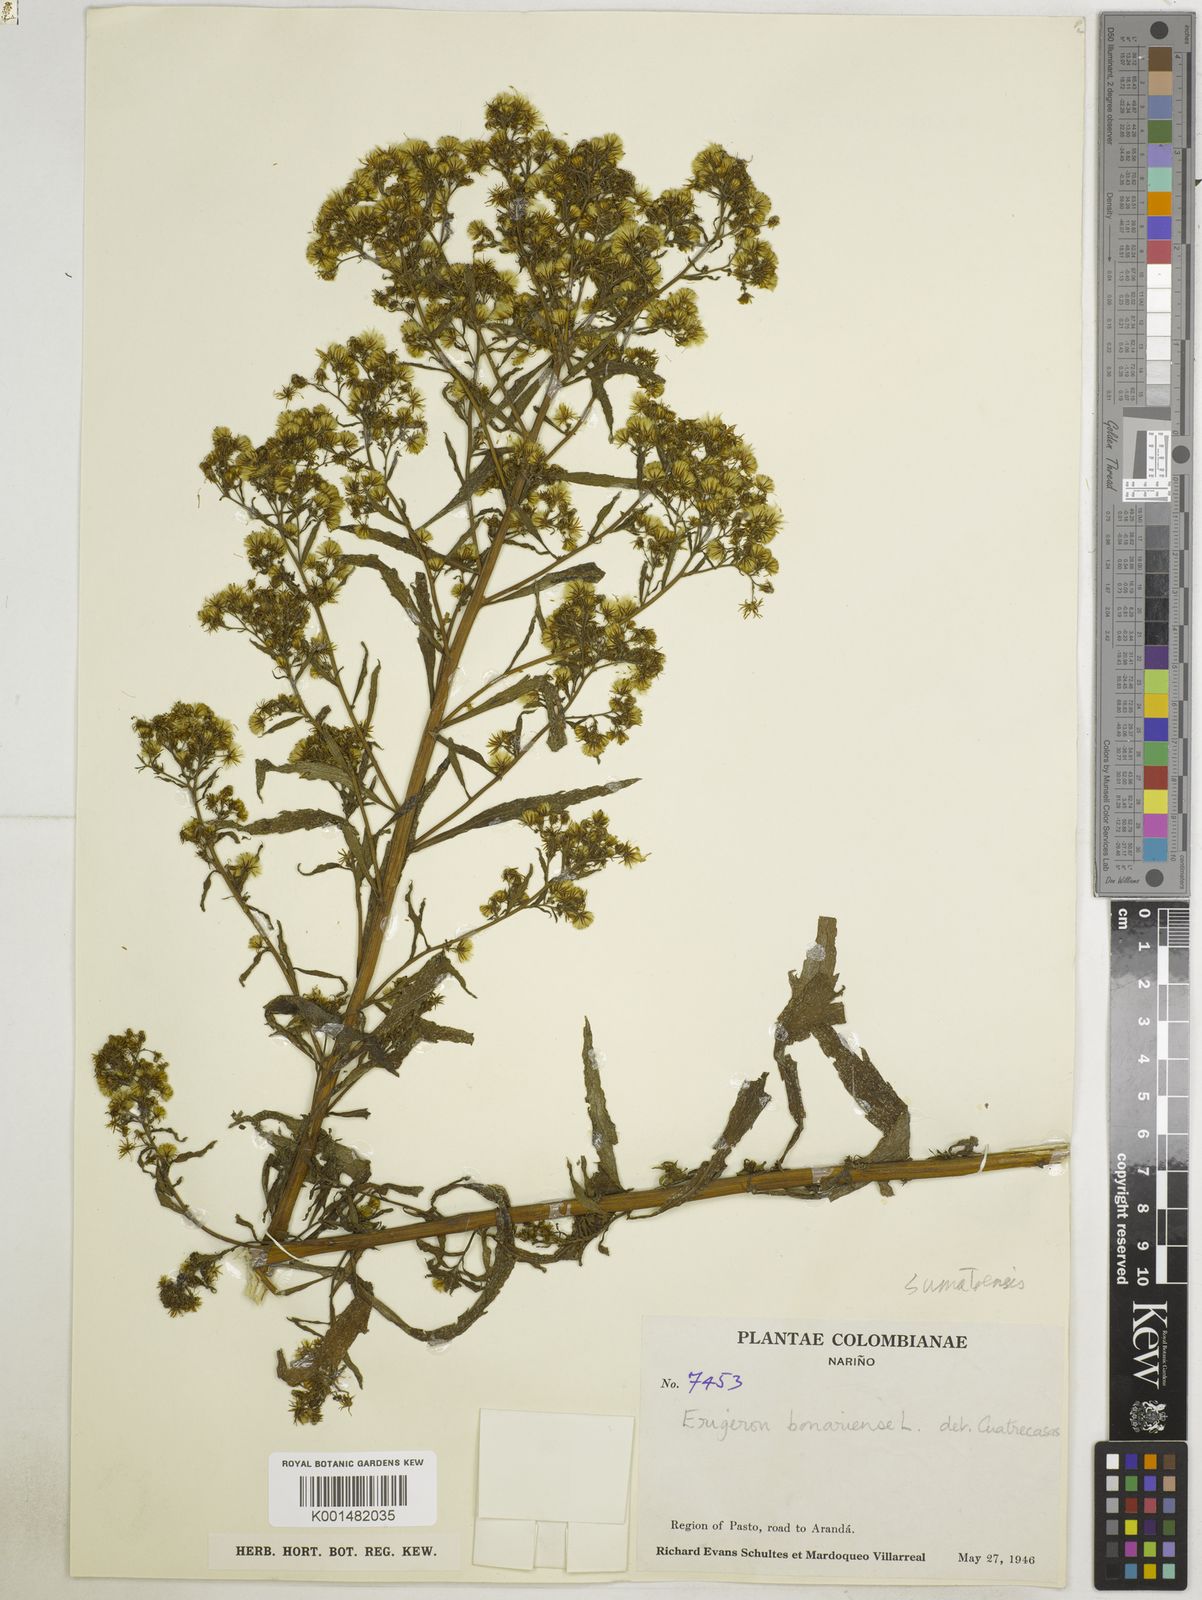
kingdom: Plantae
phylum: Tracheophyta
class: Magnoliopsida
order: Asterales
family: Asteraceae
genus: Erigeron
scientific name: Erigeron sumatrensis
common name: Daisy
